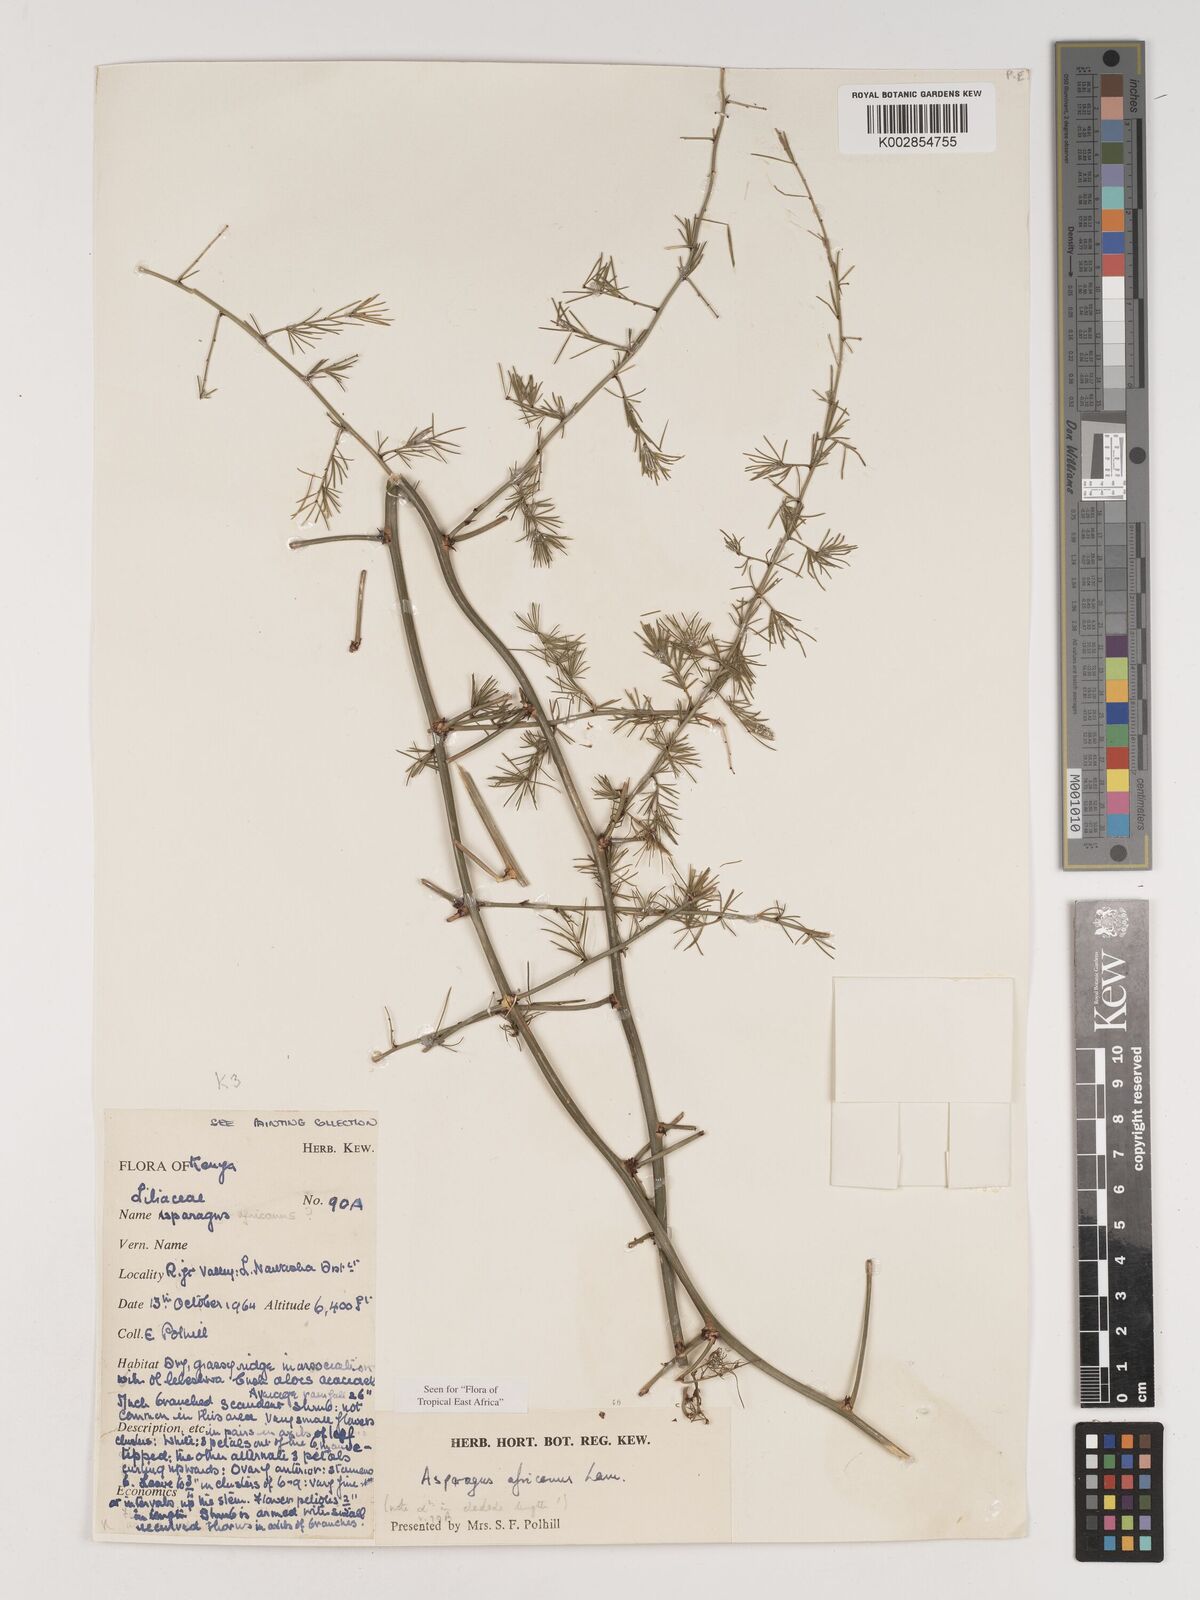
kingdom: Plantae
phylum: Tracheophyta
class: Liliopsida
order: Asparagales
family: Asparagaceae
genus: Asparagus
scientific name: Asparagus africanus
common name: Asparagus-fern
